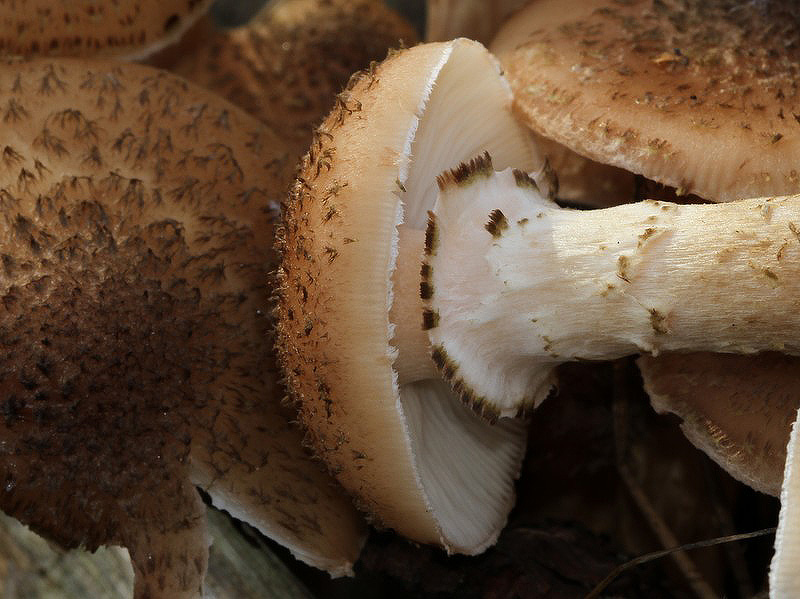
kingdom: Fungi
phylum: Basidiomycota
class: Agaricomycetes
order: Agaricales
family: Physalacriaceae
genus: Armillaria
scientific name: Armillaria ostoyae
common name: mørk honningsvamp
